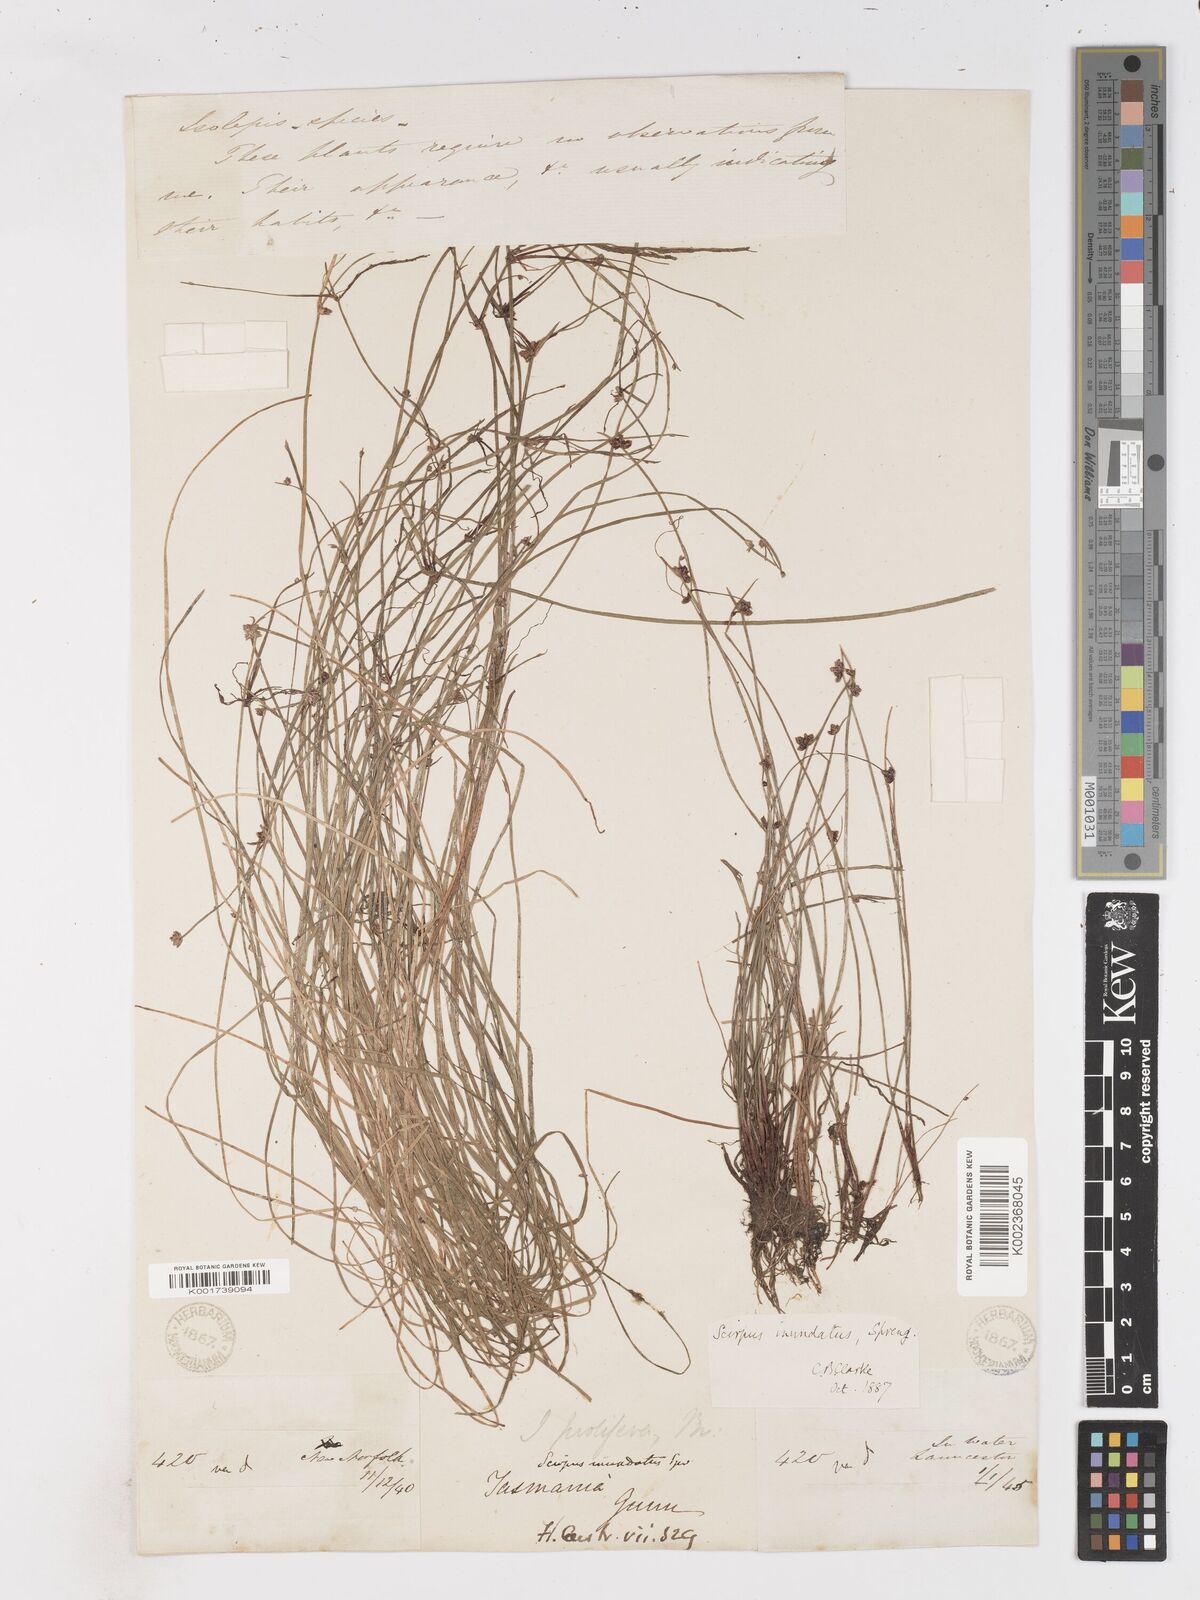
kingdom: Plantae
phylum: Tracheophyta
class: Liliopsida
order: Poales
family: Cyperaceae
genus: Isolepis
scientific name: Isolepis inundata
